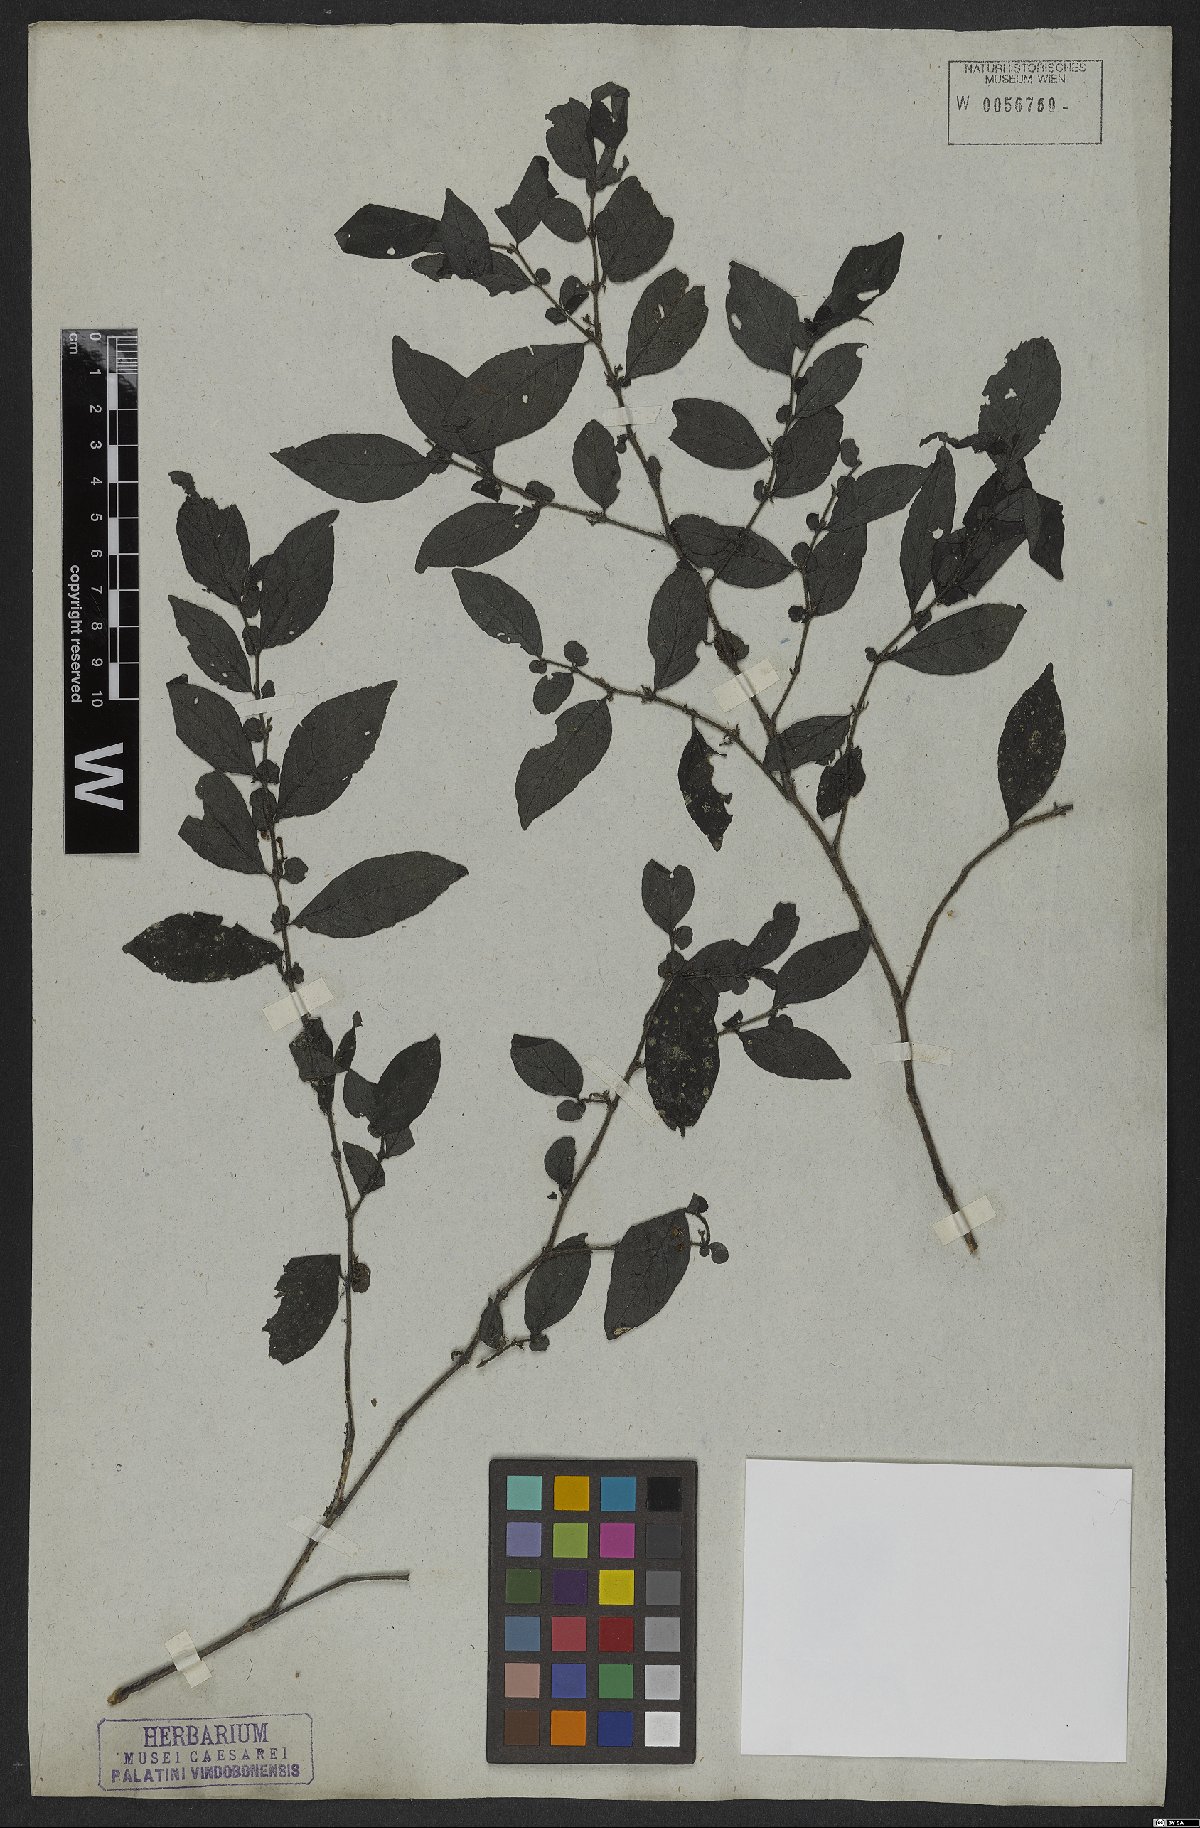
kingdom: Plantae
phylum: Tracheophyta
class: Magnoliopsida
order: Lamiales
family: Acanthaceae
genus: Justicia
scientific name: Justicia heterophylla
